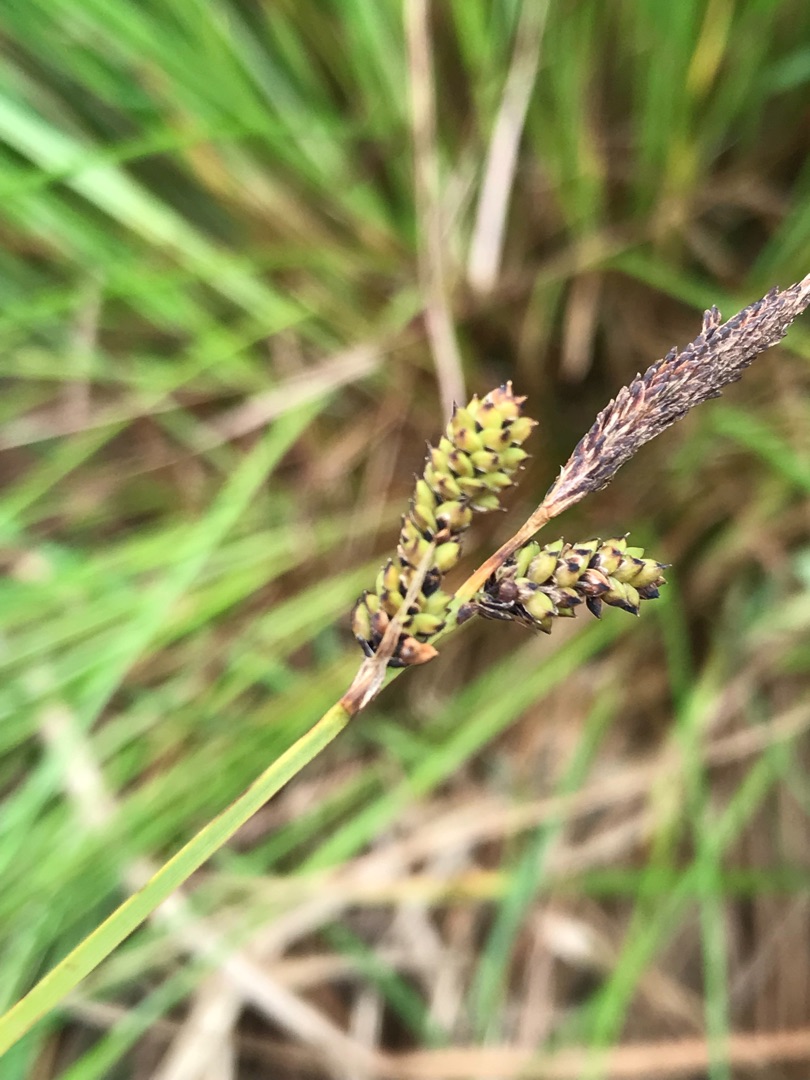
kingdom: Plantae
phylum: Tracheophyta
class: Liliopsida
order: Poales
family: Cyperaceae
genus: Carex
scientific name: Carex cespitosa
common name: Tue-star
